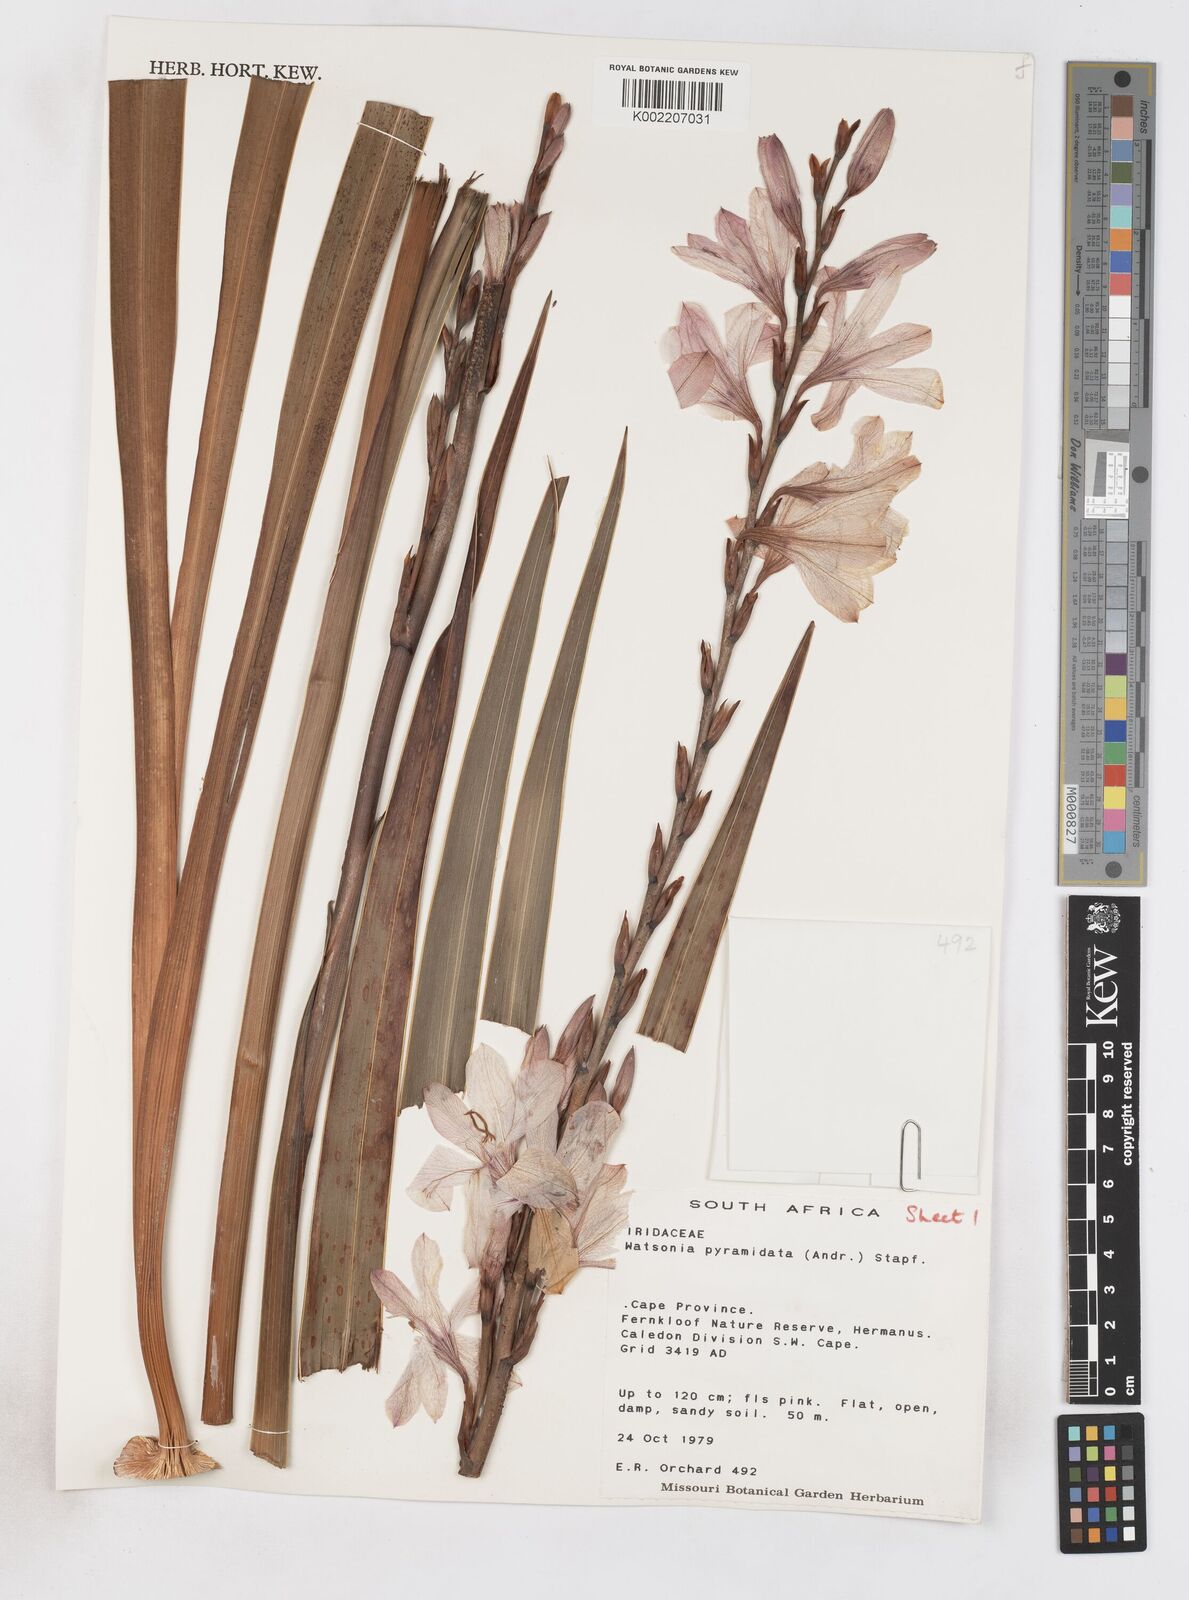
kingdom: Plantae
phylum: Tracheophyta
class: Liliopsida
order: Asparagales
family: Iridaceae
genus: Watsonia
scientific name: Watsonia borbonica
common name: Bugle-lily
